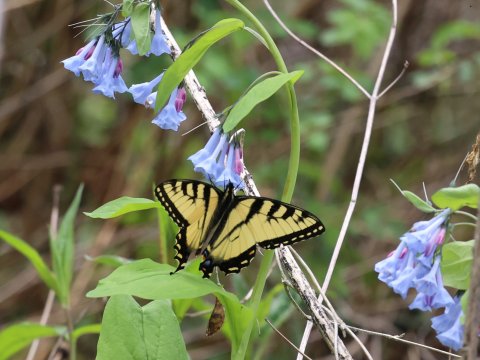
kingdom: Animalia
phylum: Arthropoda
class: Insecta
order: Lepidoptera
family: Papilionidae
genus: Pterourus
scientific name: Pterourus glaucus
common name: Eastern Tiger Swallowtail
